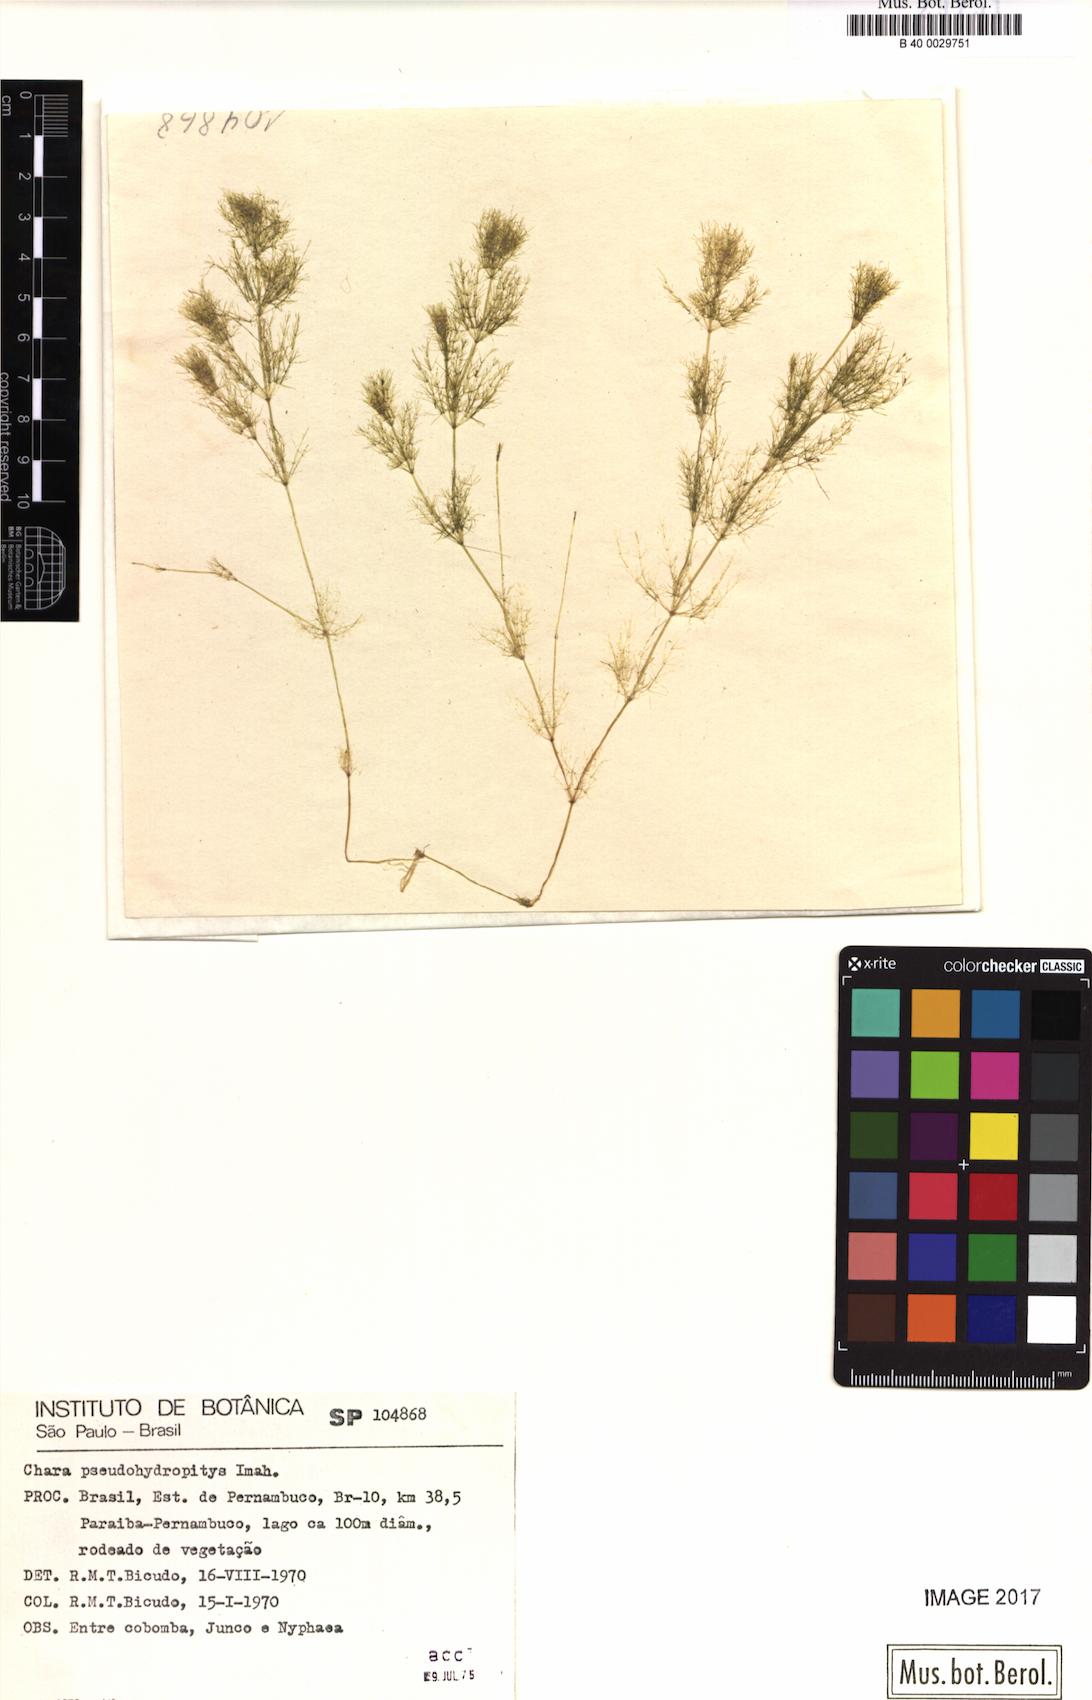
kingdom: Plantae
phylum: Charophyta
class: Charophyceae
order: Charales
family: Characeae
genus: Chara
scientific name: Chara pseudohydropitys
